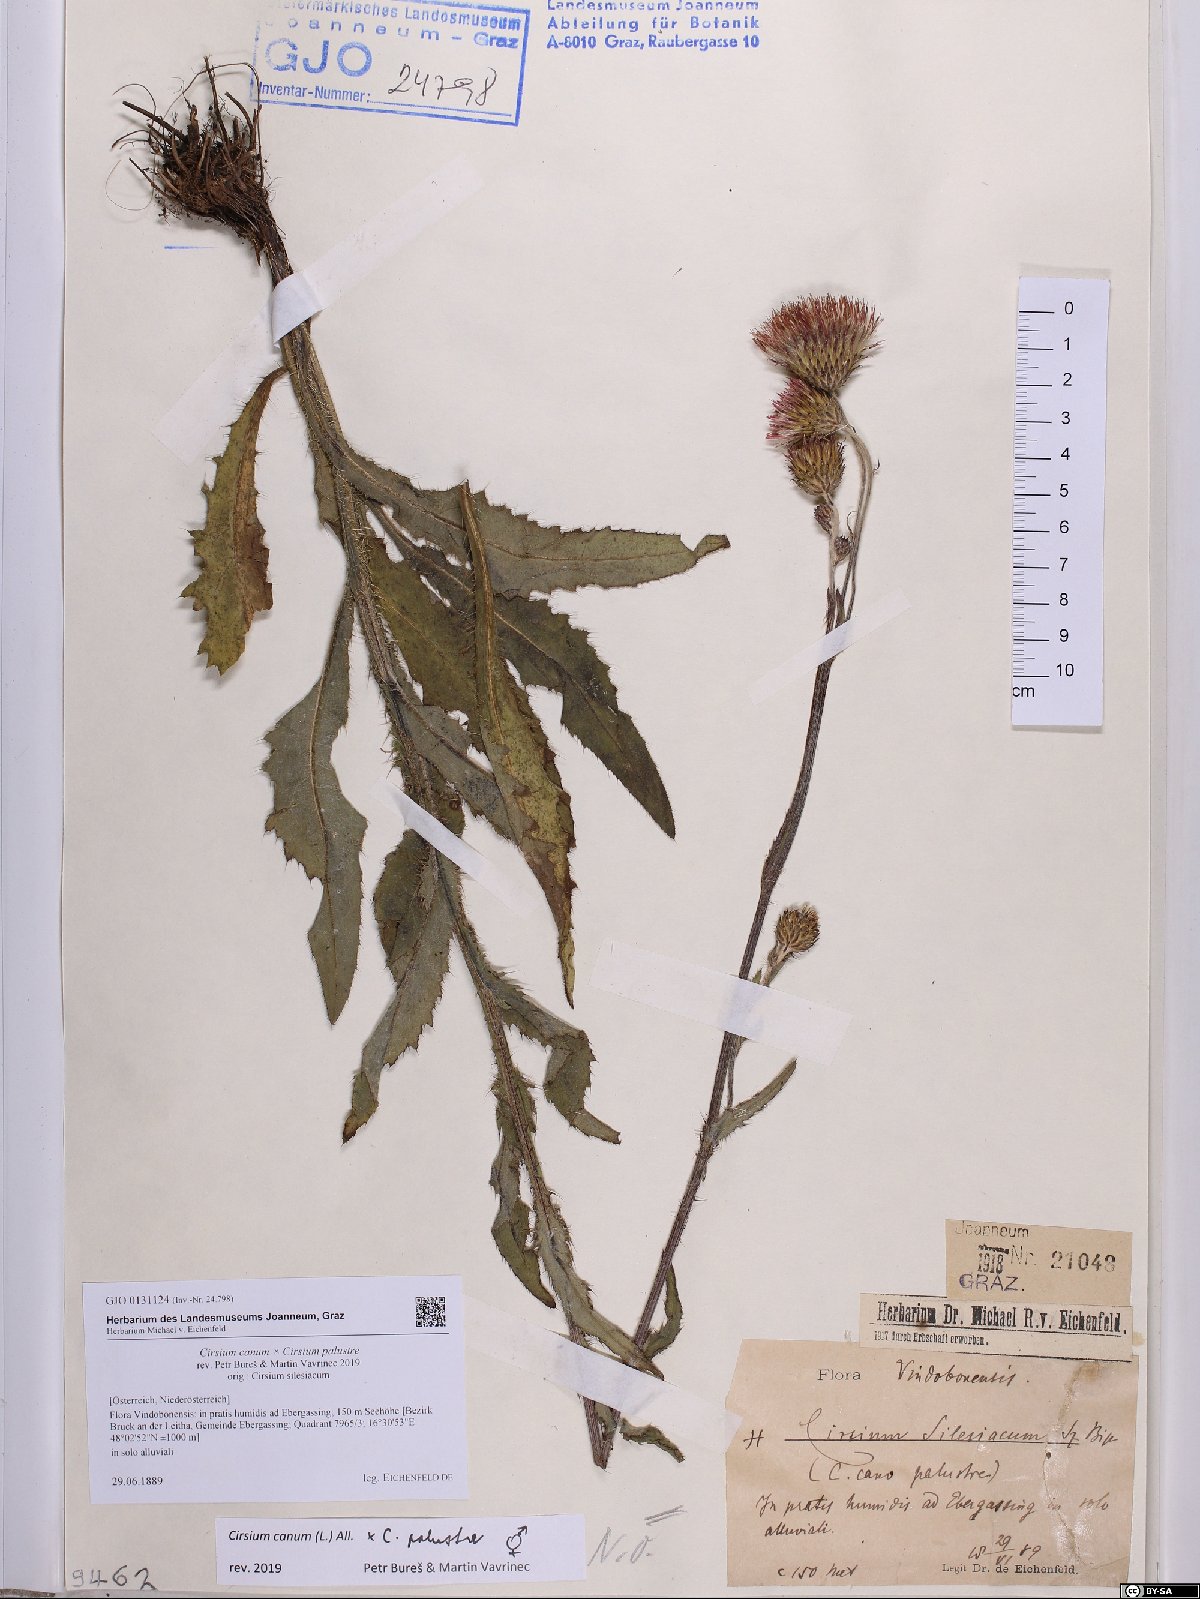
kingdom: Plantae
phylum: Tracheophyta
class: Magnoliopsida
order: Asterales
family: Asteraceae
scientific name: Asteraceae
